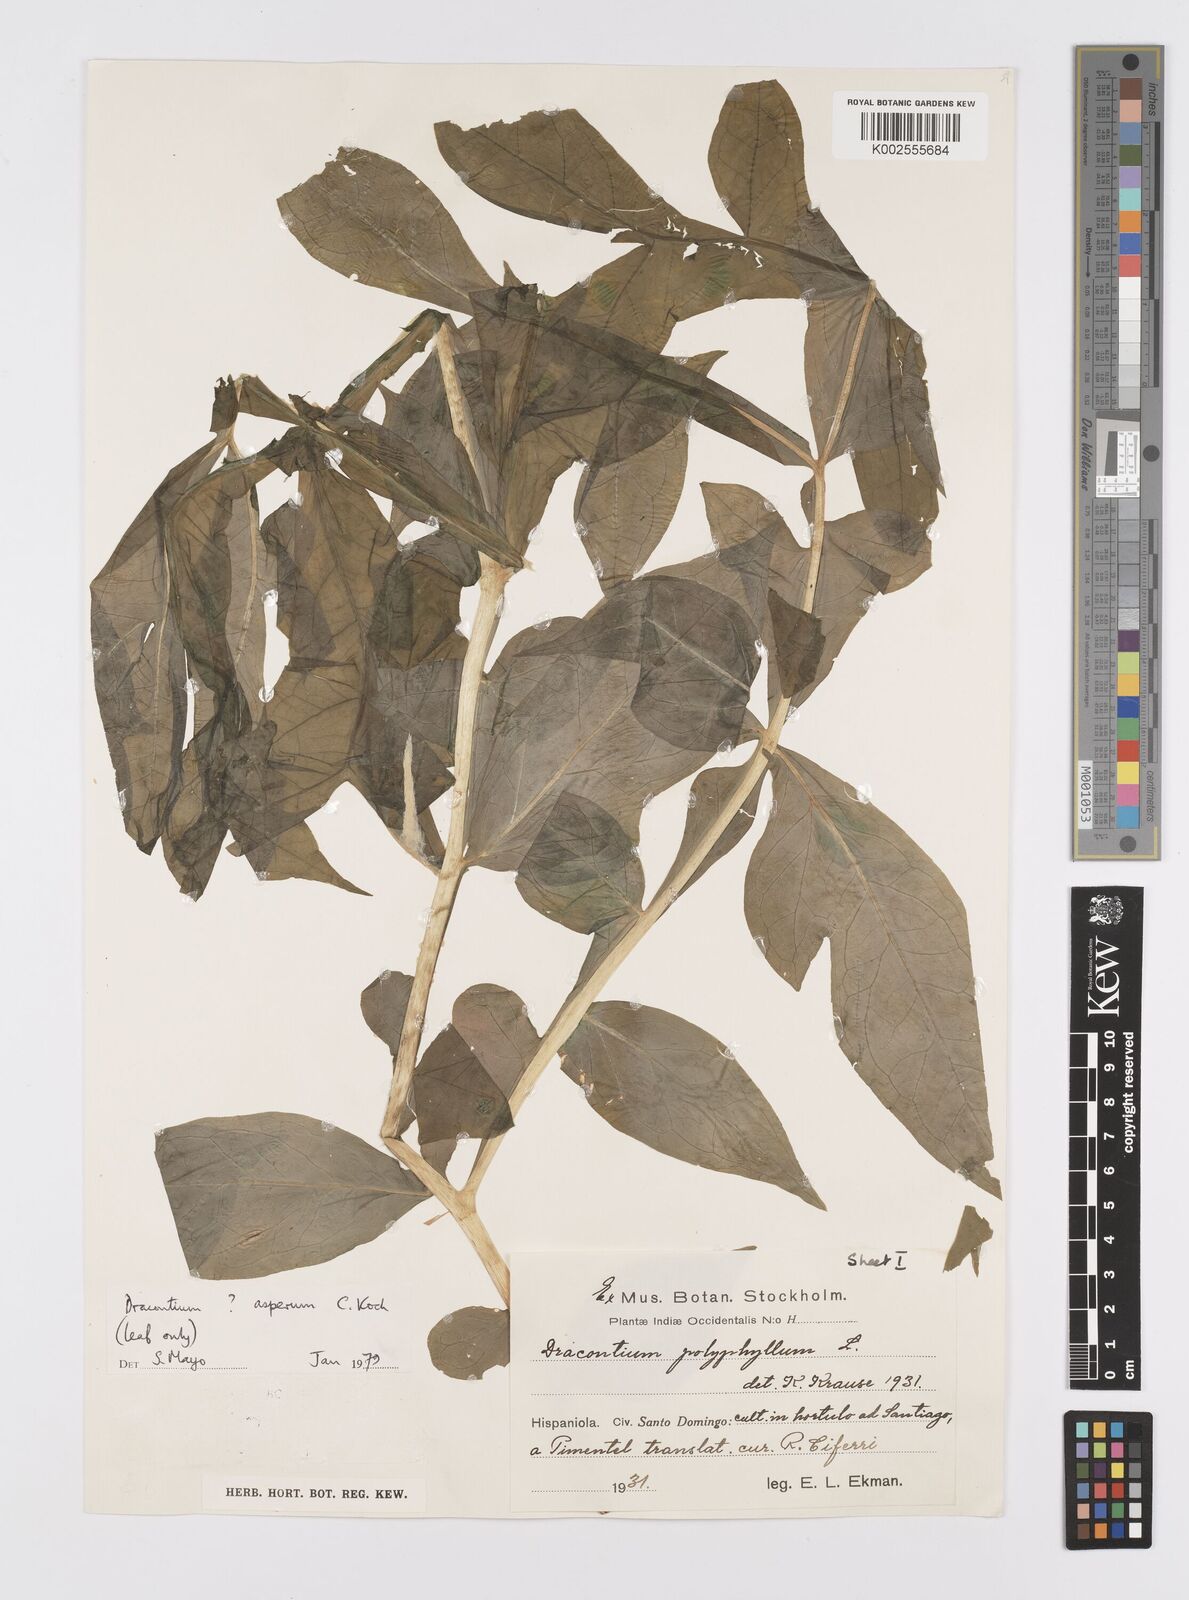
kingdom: Plantae
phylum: Tracheophyta
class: Liliopsida
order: Alismatales
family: Araceae
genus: Dracontium
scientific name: Dracontium asperum
